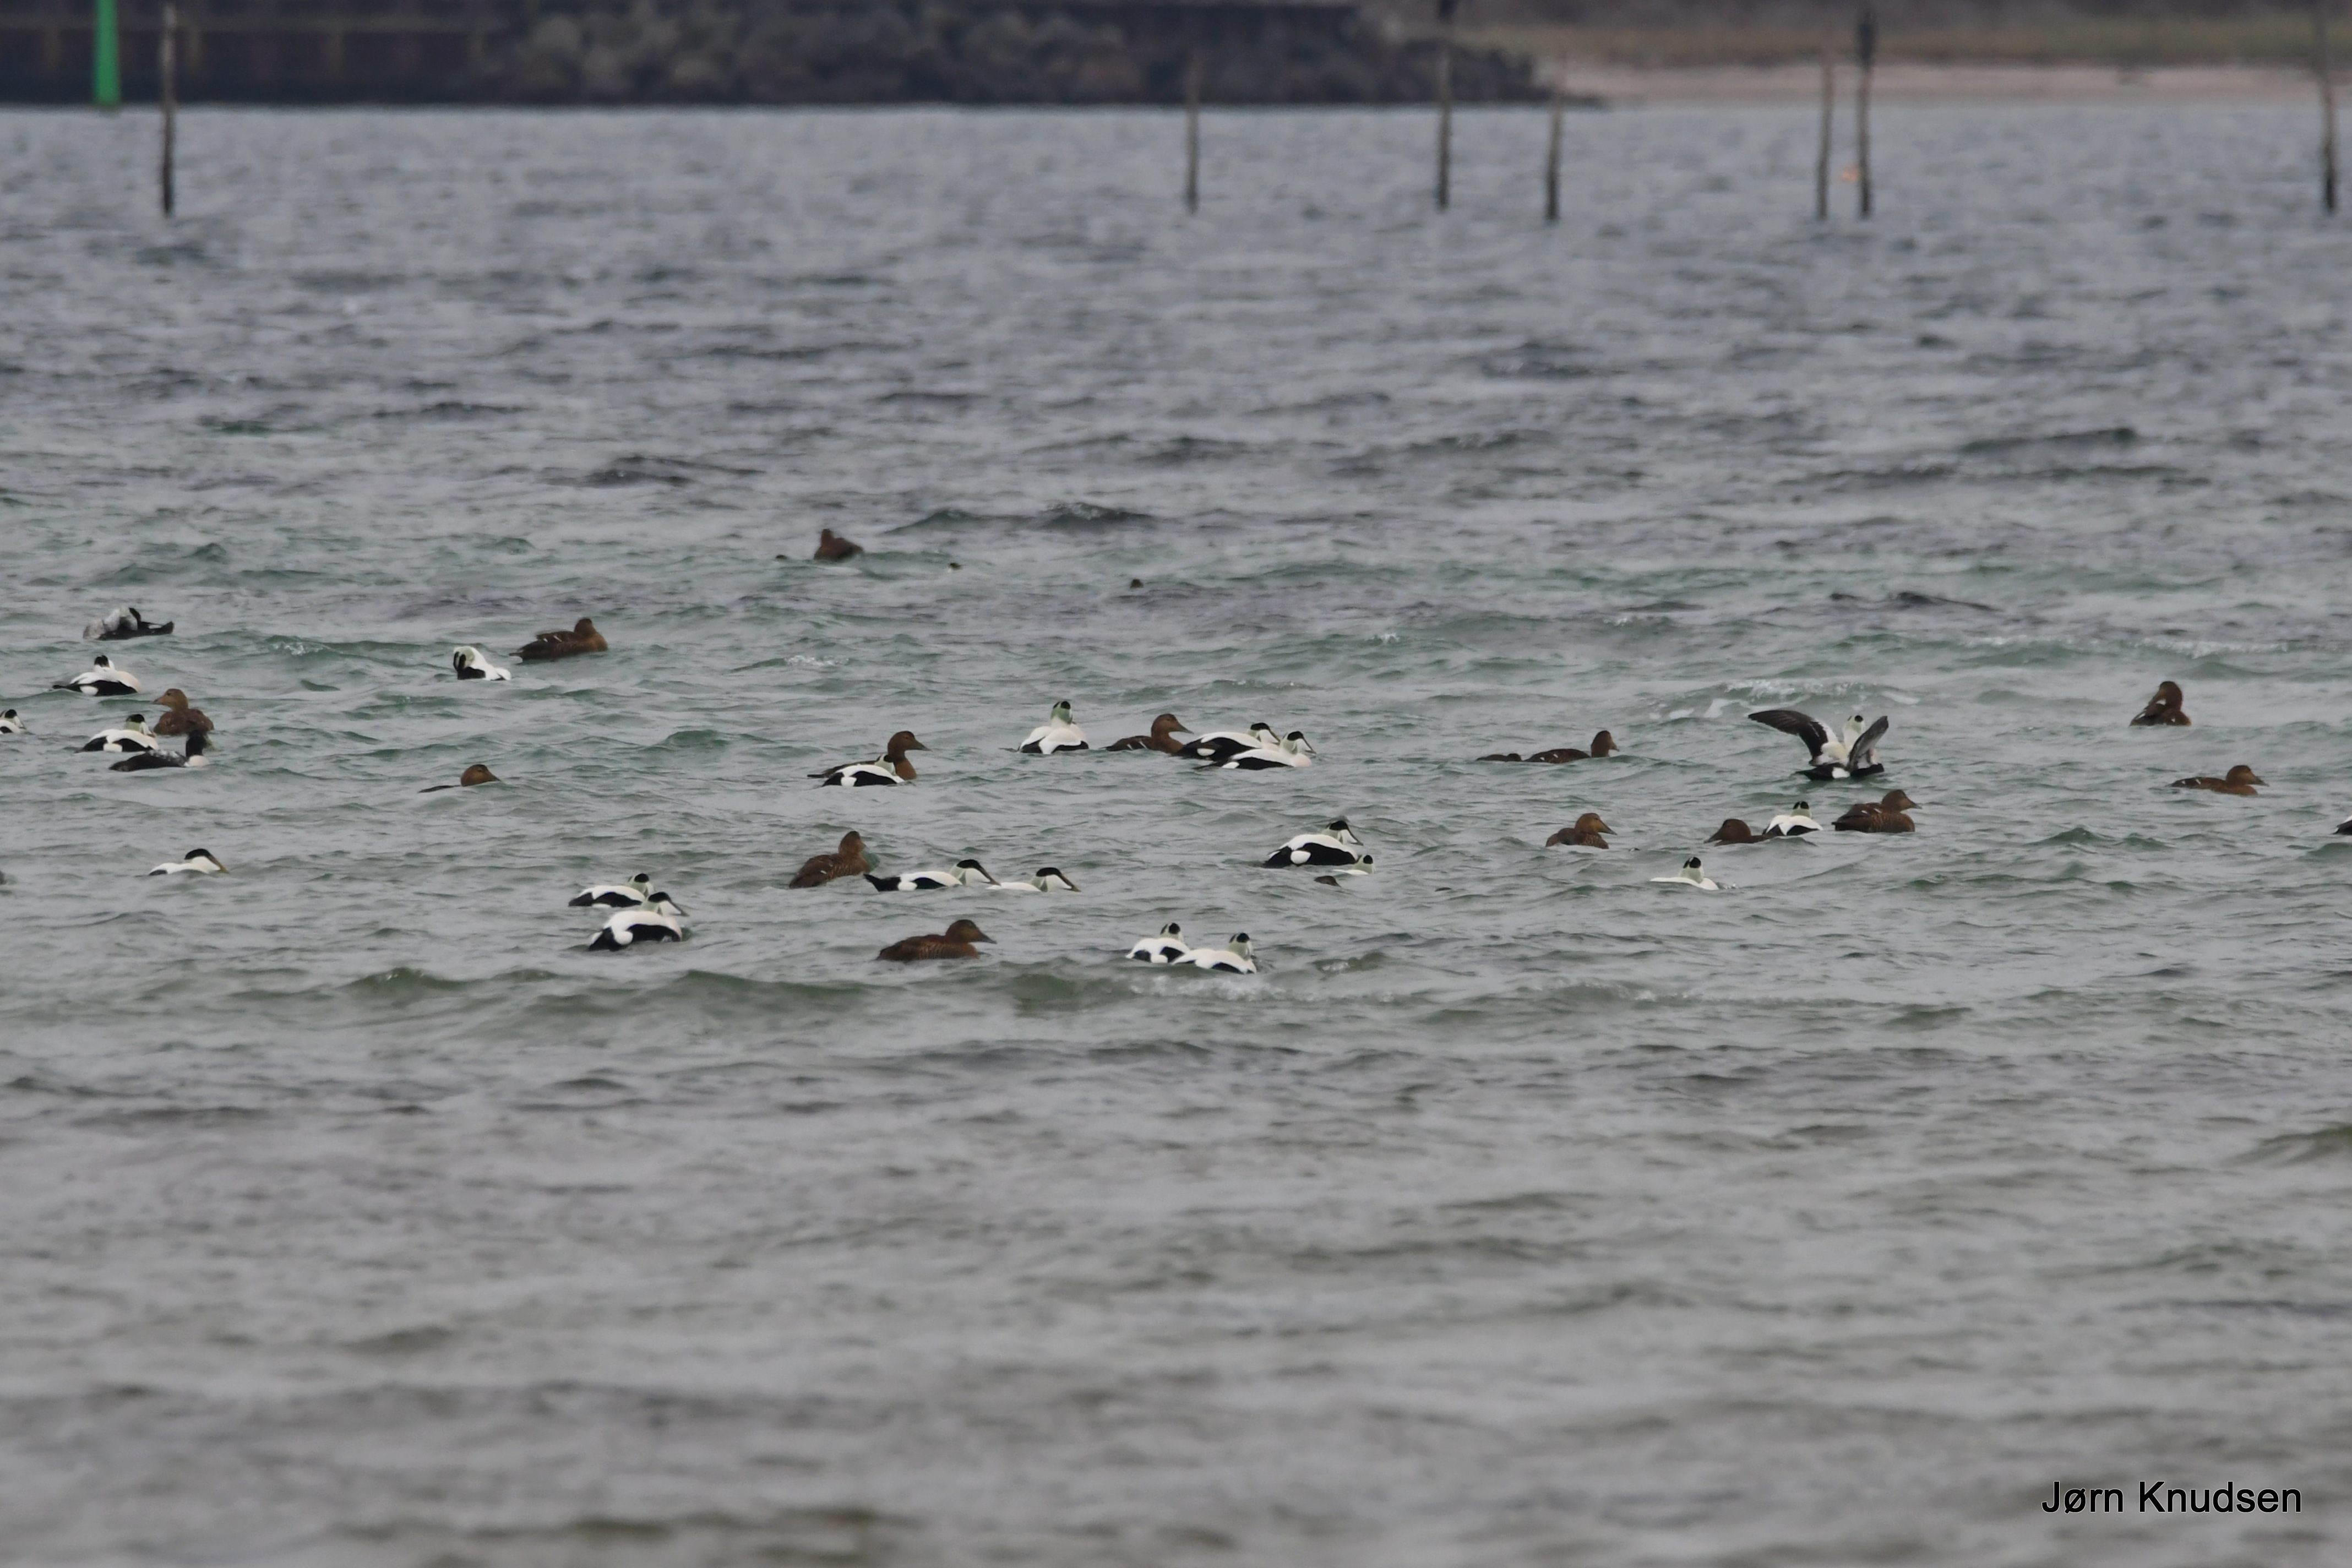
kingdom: Animalia
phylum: Chordata
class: Aves
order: Anseriformes
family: Anatidae
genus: Somateria
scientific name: Somateria mollissima
